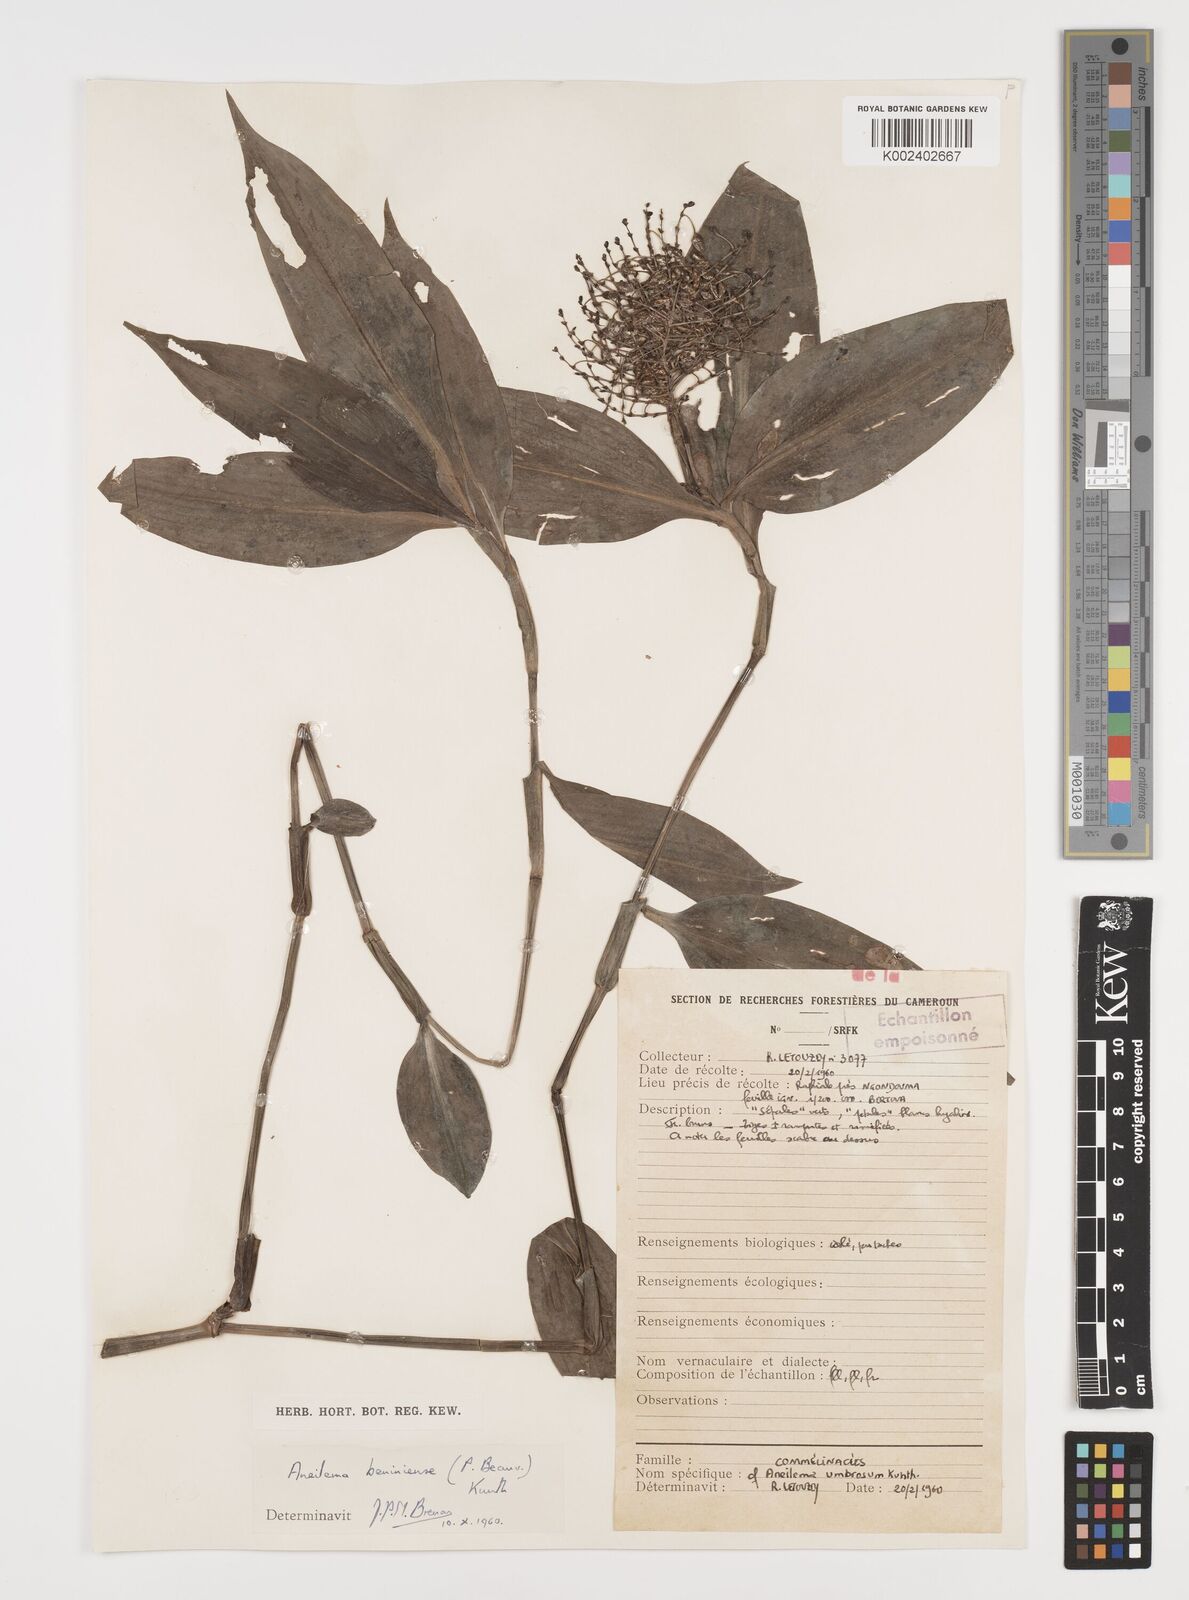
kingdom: Plantae
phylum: Tracheophyta
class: Liliopsida
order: Commelinales
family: Commelinaceae
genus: Aneilema
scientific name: Aneilema beniniense
